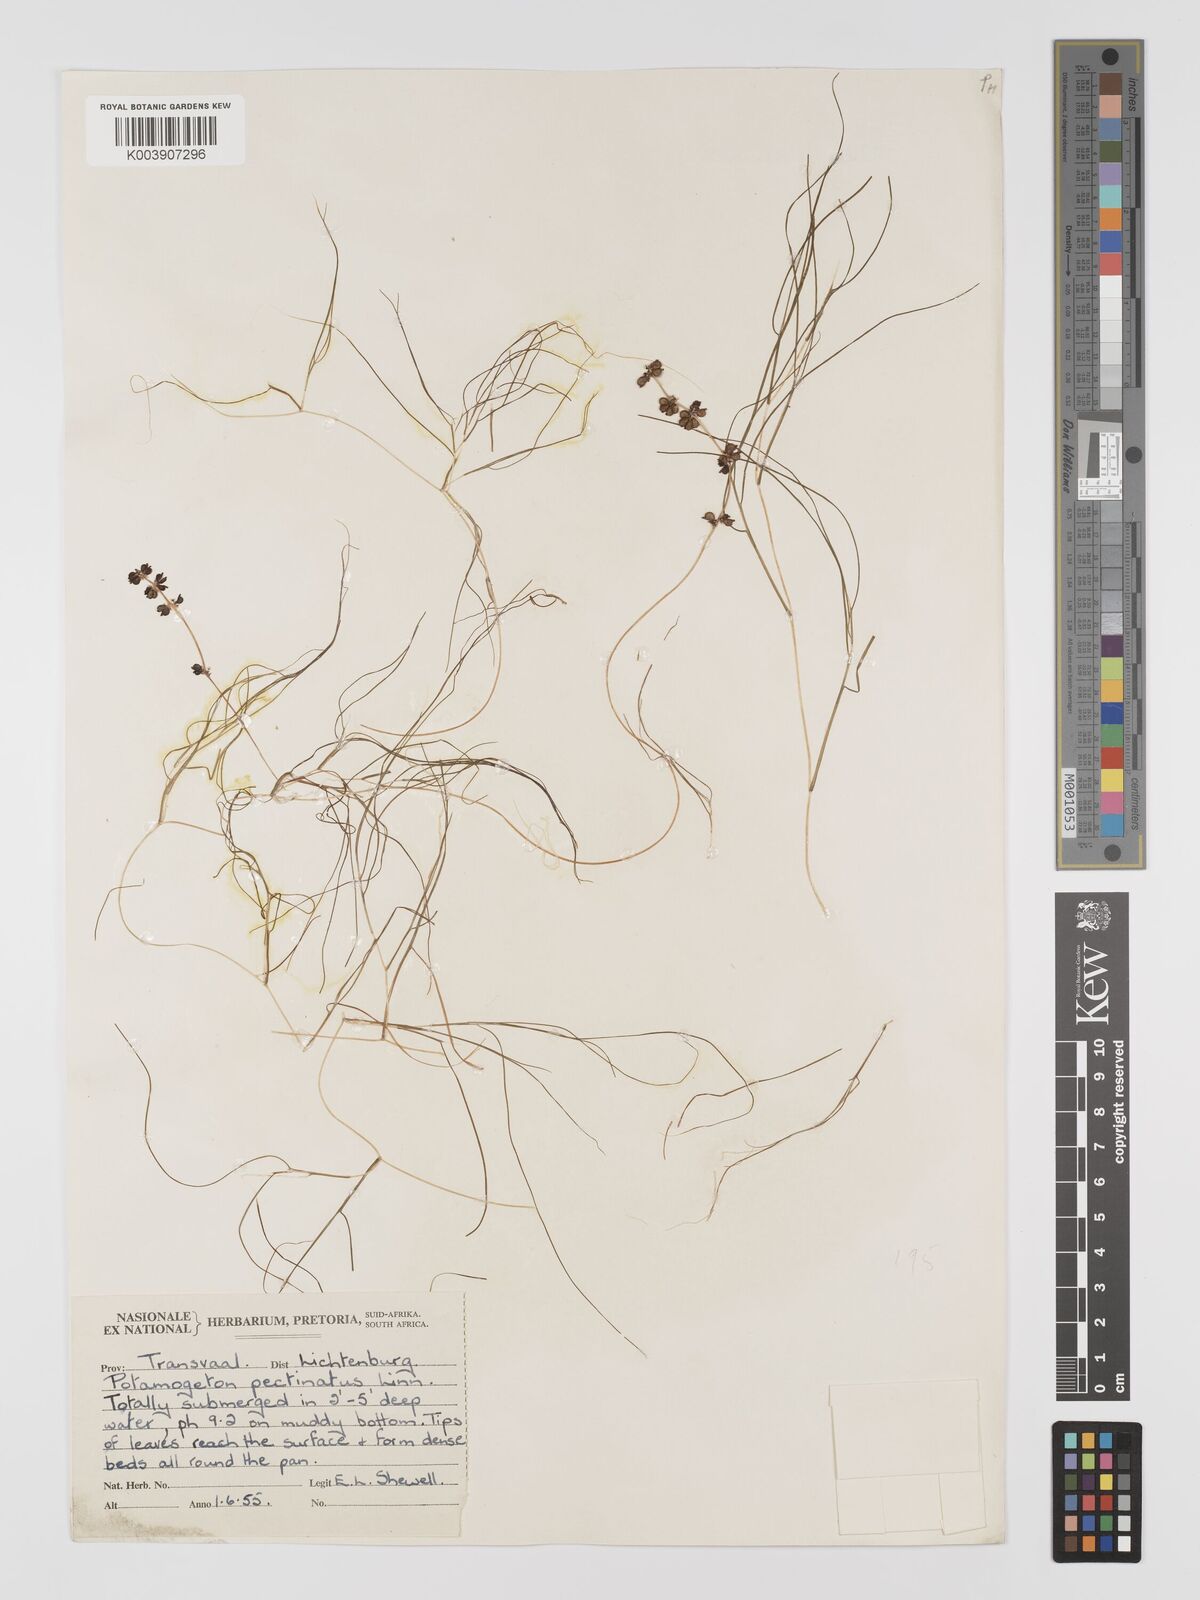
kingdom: Plantae
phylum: Tracheophyta
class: Liliopsida
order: Alismatales
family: Potamogetonaceae
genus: Stuckenia
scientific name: Stuckenia pectinata
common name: Sago pondweed
